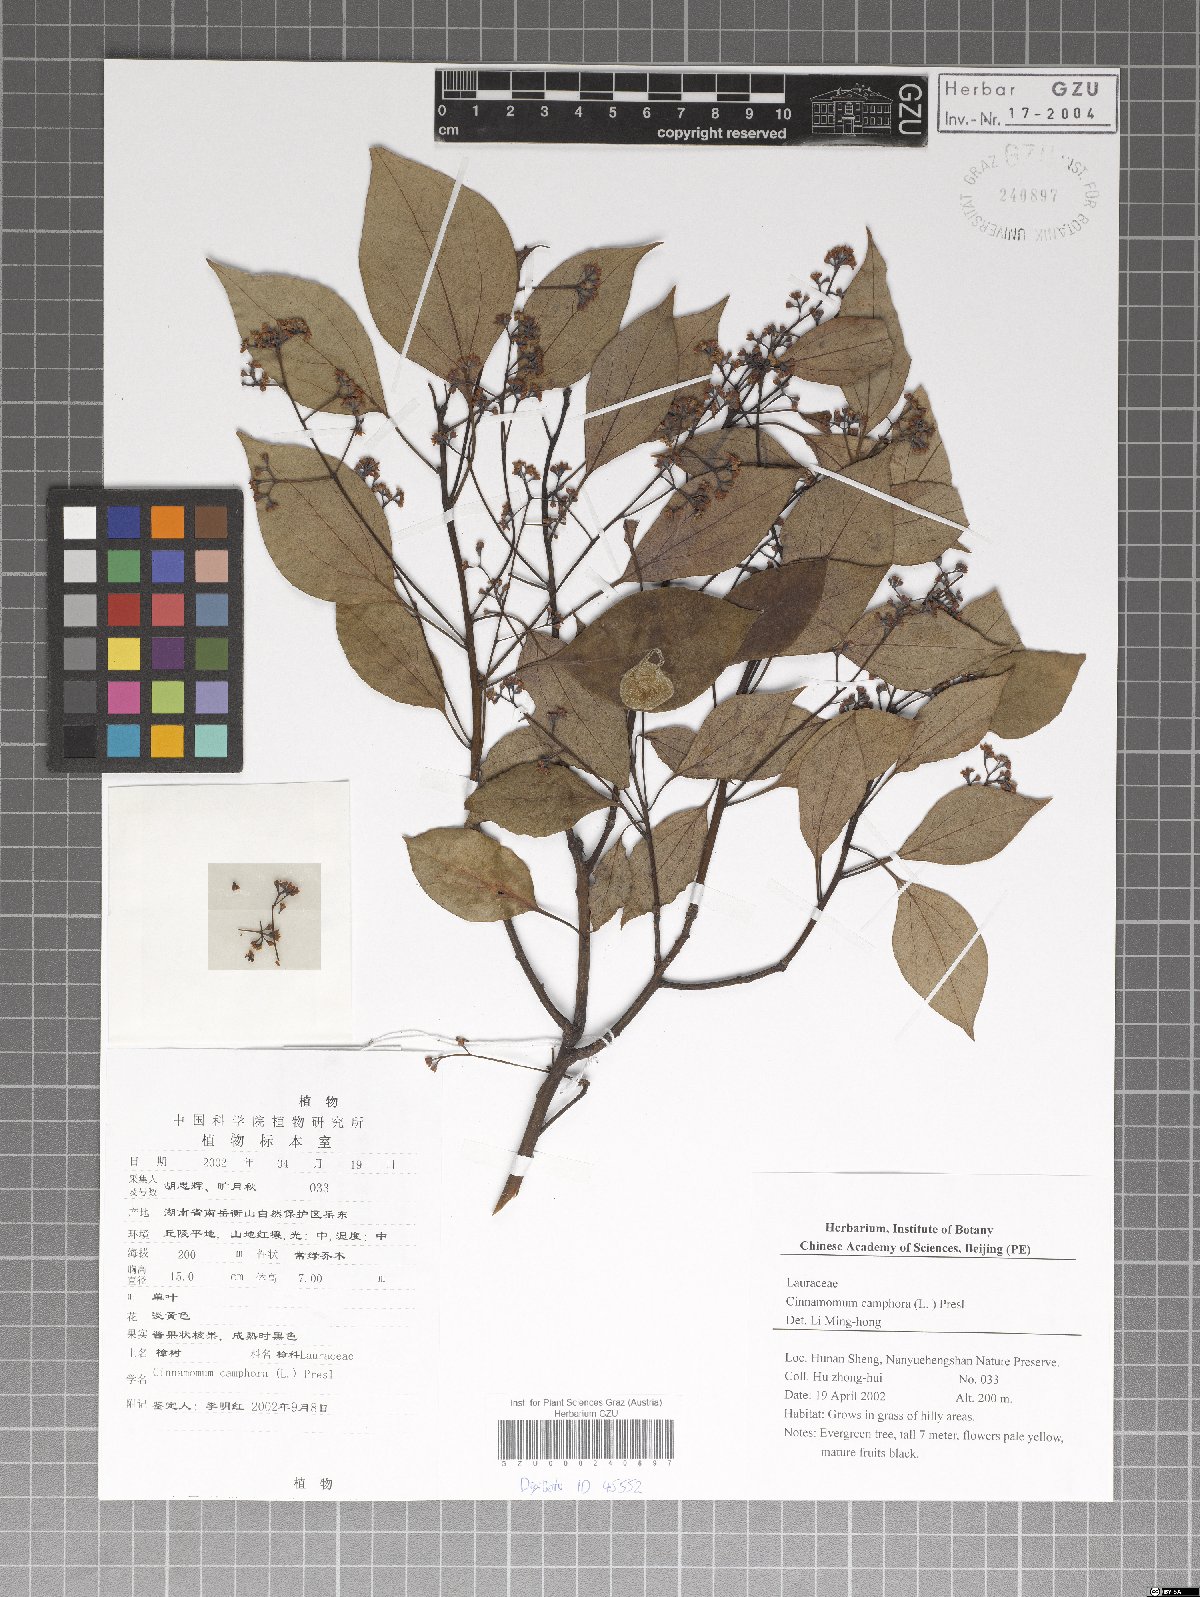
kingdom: Plantae
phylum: Tracheophyta
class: Magnoliopsida
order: Laurales
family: Lauraceae
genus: Cinnamomum
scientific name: Cinnamomum camphora
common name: Camphortree
